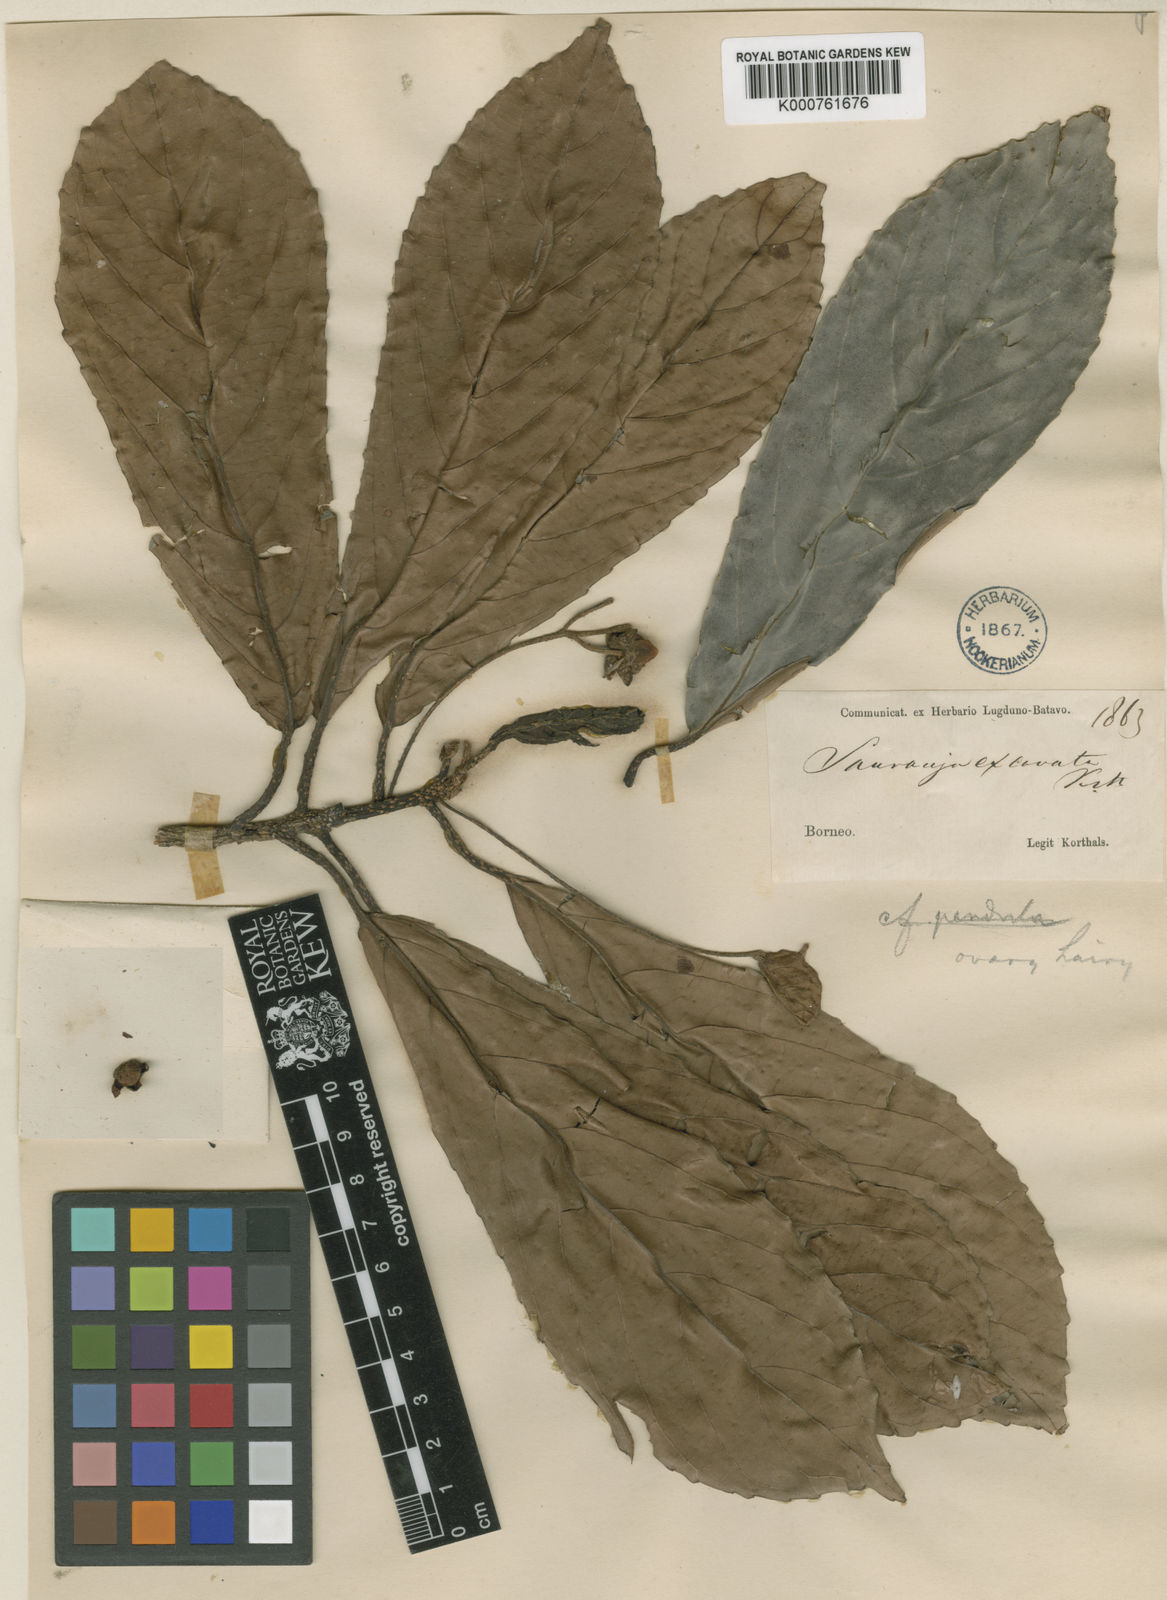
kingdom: Plantae
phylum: Tracheophyta
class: Magnoliopsida
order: Ericales
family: Actinidiaceae
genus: Saurauia
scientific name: Saurauia excavata
